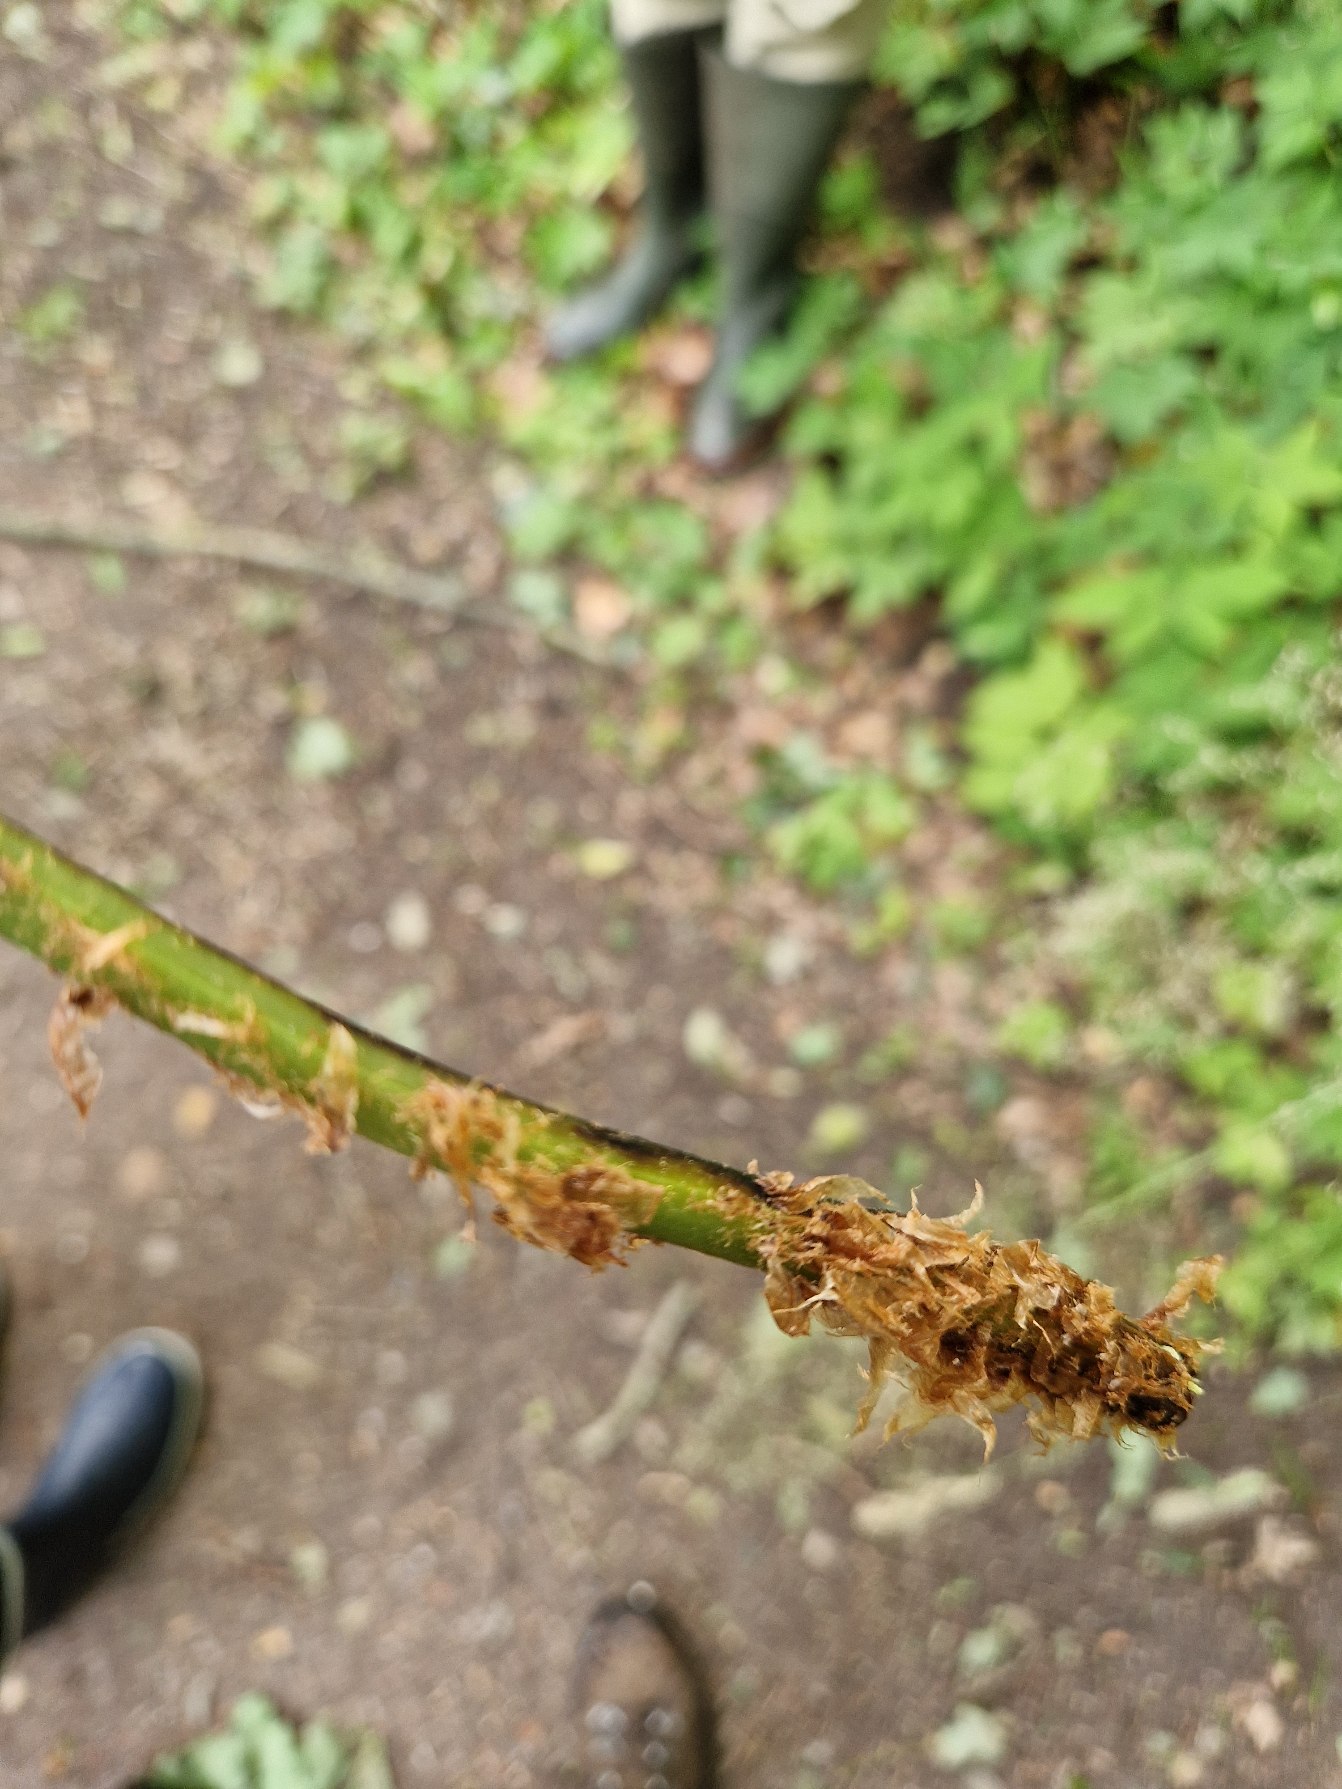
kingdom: Plantae
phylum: Tracheophyta
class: Polypodiopsida
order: Polypodiales
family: Athyriaceae
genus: Athyrium
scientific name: Athyrium filix-femina
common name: Fjerbregne
